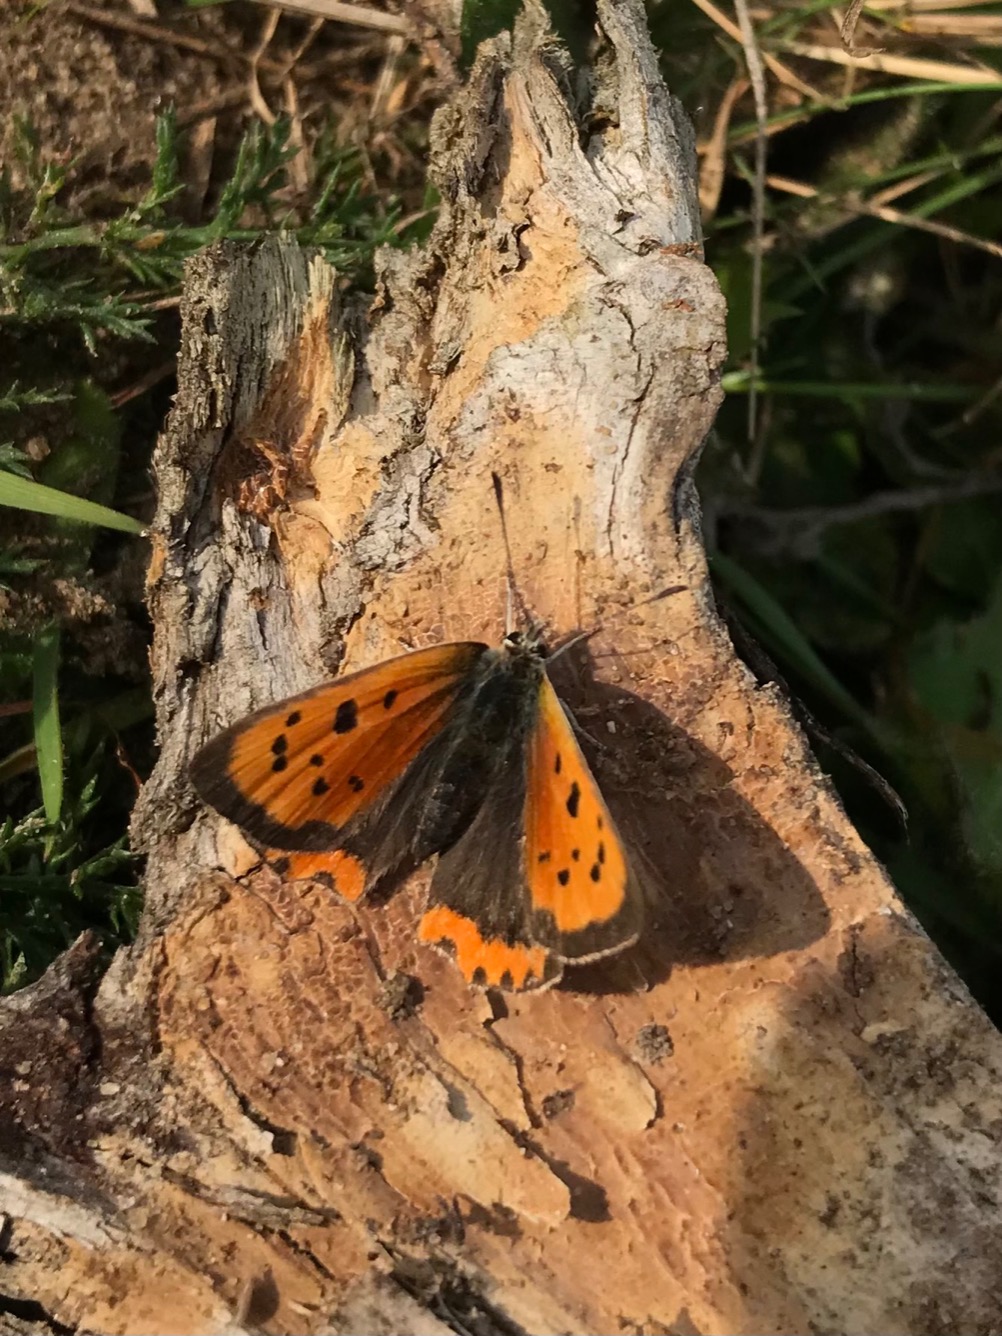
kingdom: Animalia
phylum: Arthropoda
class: Insecta
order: Lepidoptera
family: Lycaenidae
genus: Lycaena
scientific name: Lycaena phlaeas
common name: Lille ildfugl
